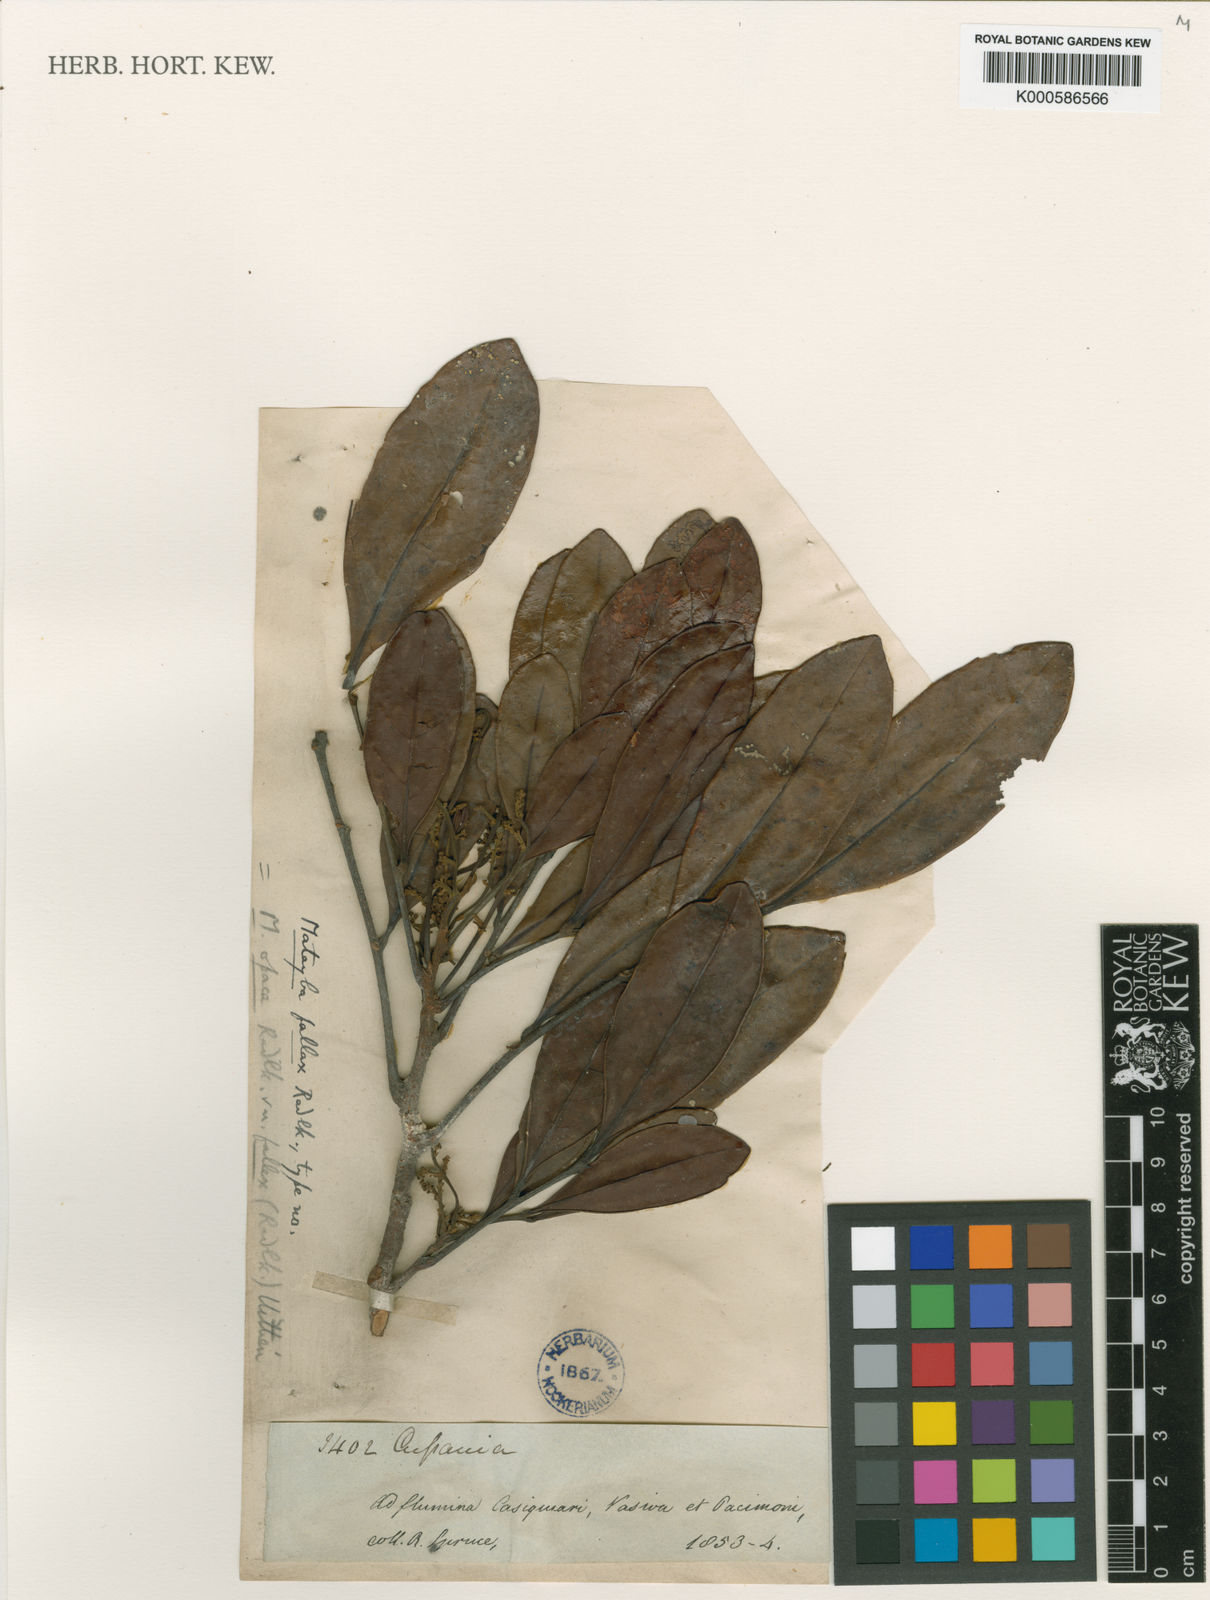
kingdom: Plantae
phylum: Tracheophyta
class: Magnoliopsida
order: Sapindales
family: Sapindaceae
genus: Matayba
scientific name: Matayba opaca
